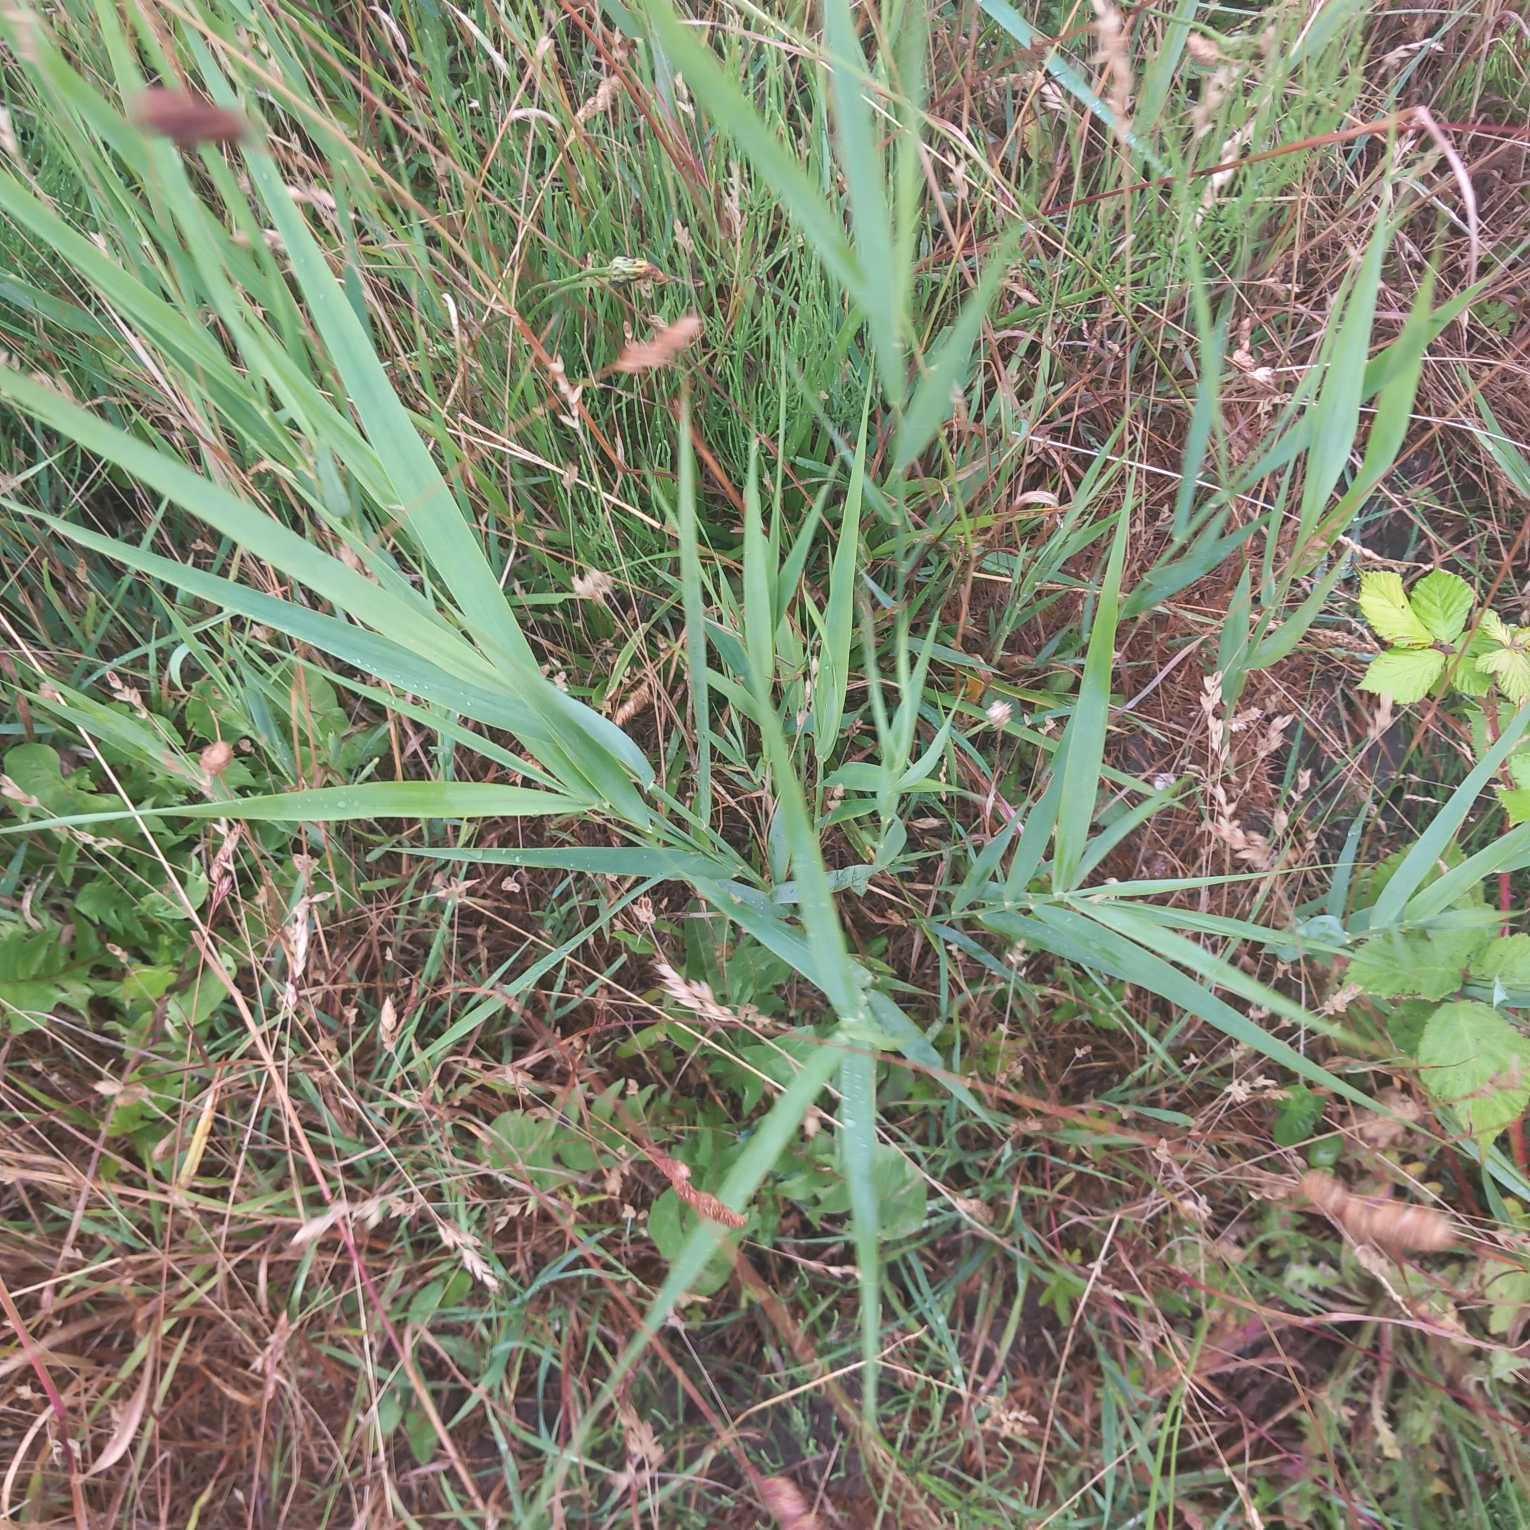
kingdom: Plantae
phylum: Tracheophyta
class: Liliopsida
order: Poales
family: Poaceae
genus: Phragmites
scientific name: Phragmites australis
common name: Tagrør
